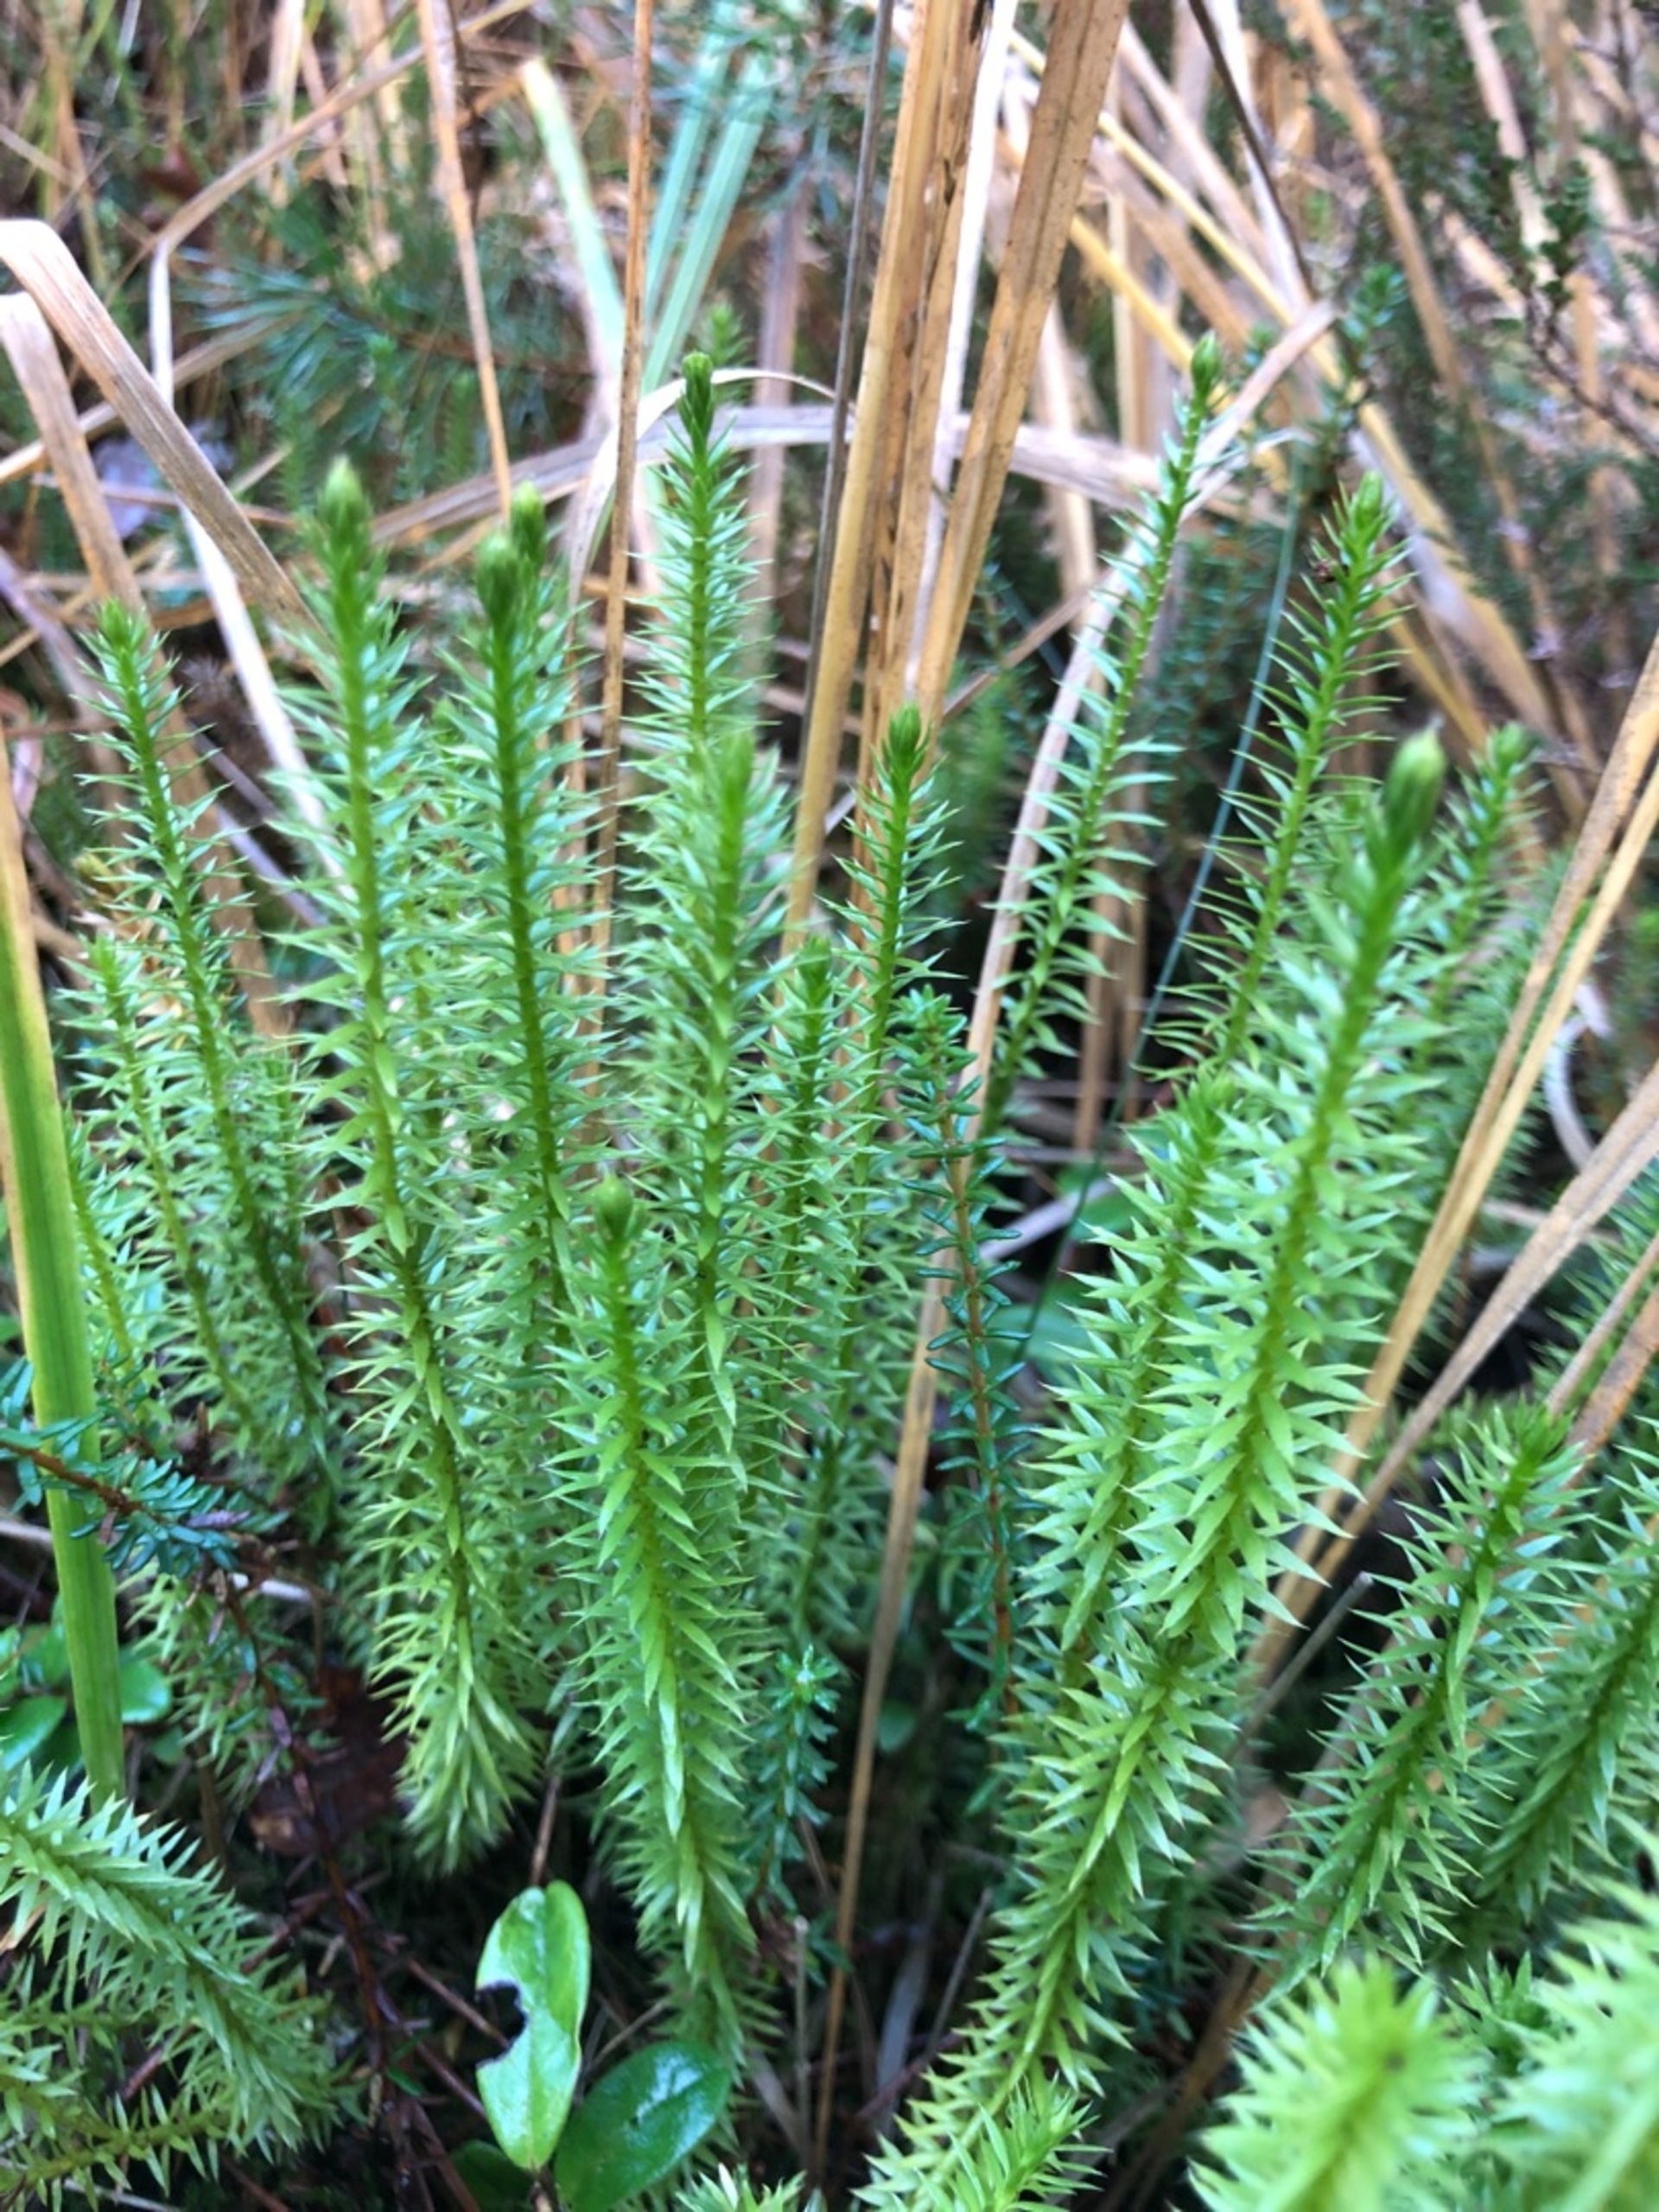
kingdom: Plantae
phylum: Tracheophyta
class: Lycopodiopsida
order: Lycopodiales
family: Lycopodiaceae
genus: Spinulum
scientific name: Spinulum annotinum
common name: Femradet ulvefod
